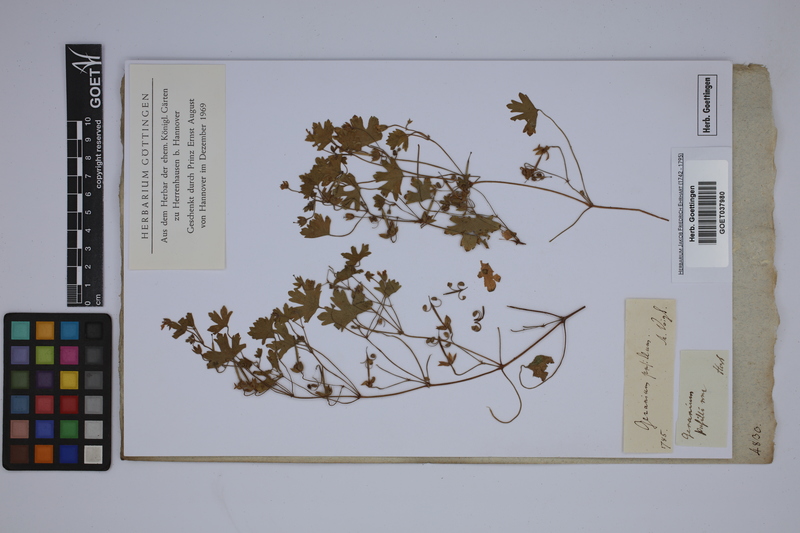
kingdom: Plantae
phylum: Tracheophyta
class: Magnoliopsida
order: Geraniales
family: Geraniaceae
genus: Geranium
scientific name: Geranium pusillum
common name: Small geranium
